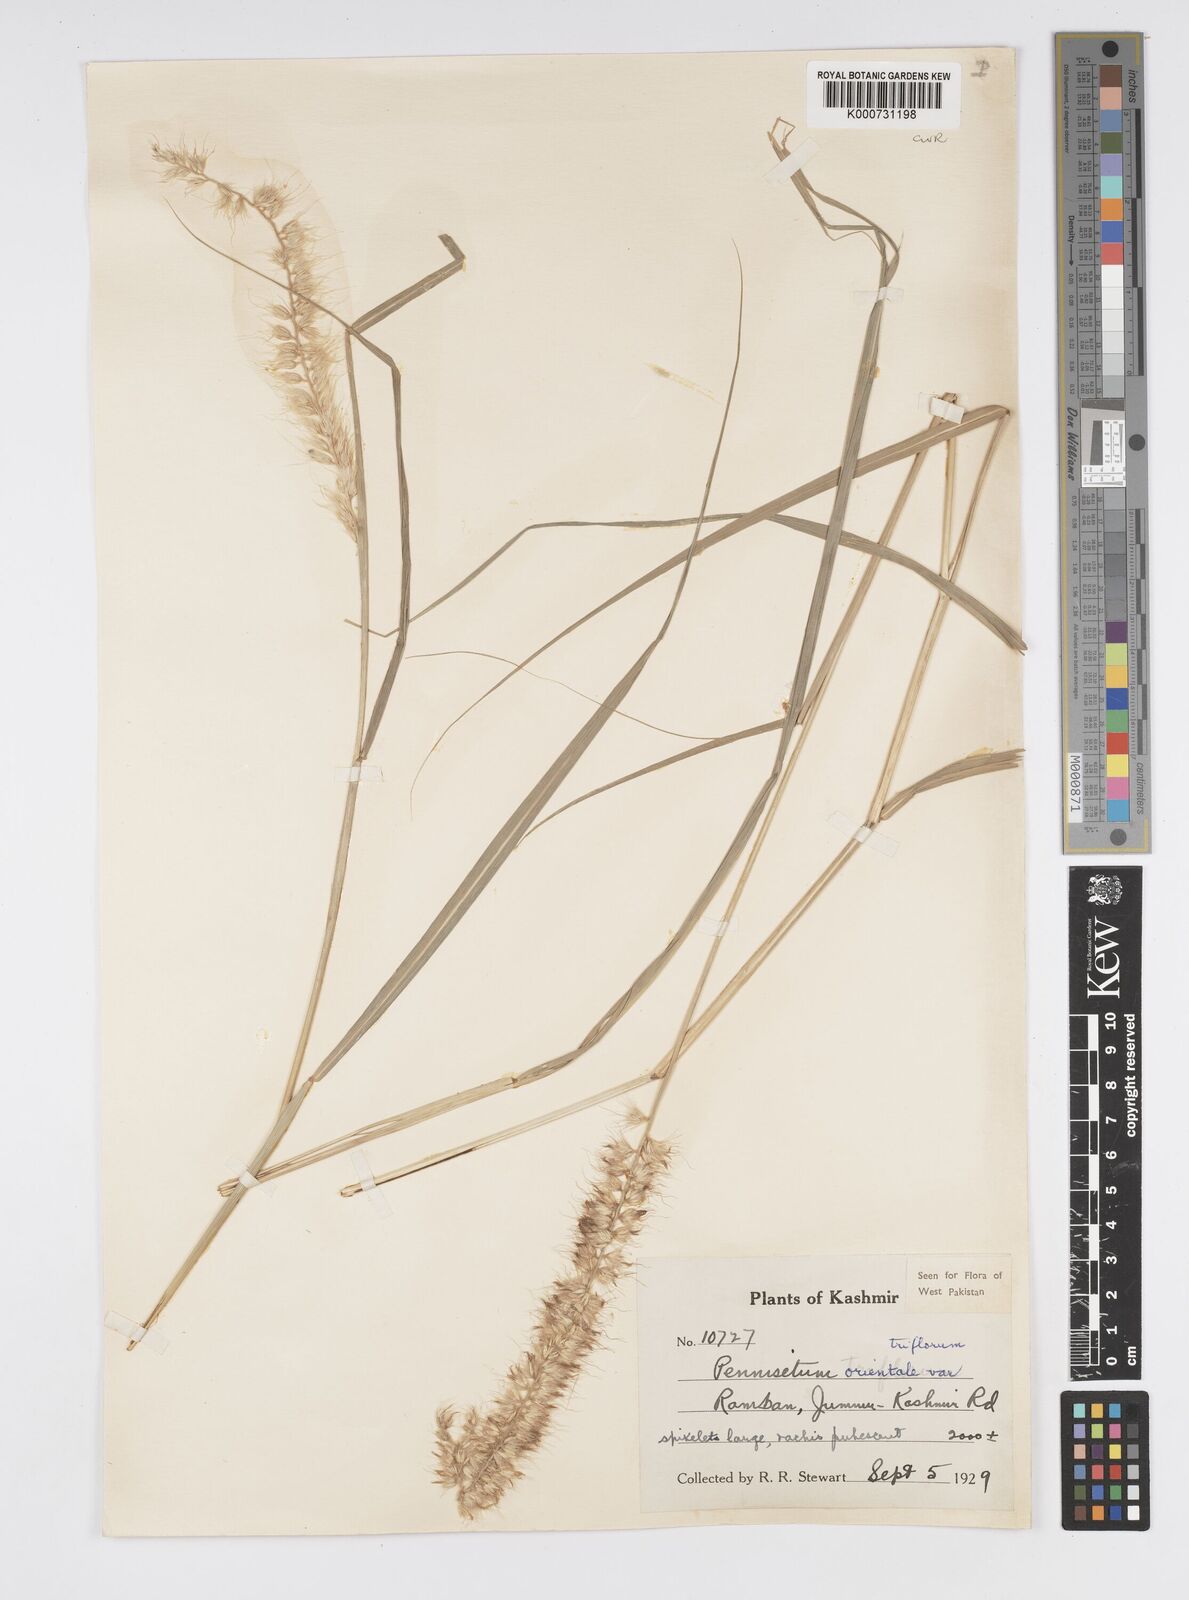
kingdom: Plantae
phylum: Tracheophyta
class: Liliopsida
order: Poales
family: Poaceae
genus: Cenchrus
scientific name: Cenchrus orientalis
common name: Oriental fountain grass
